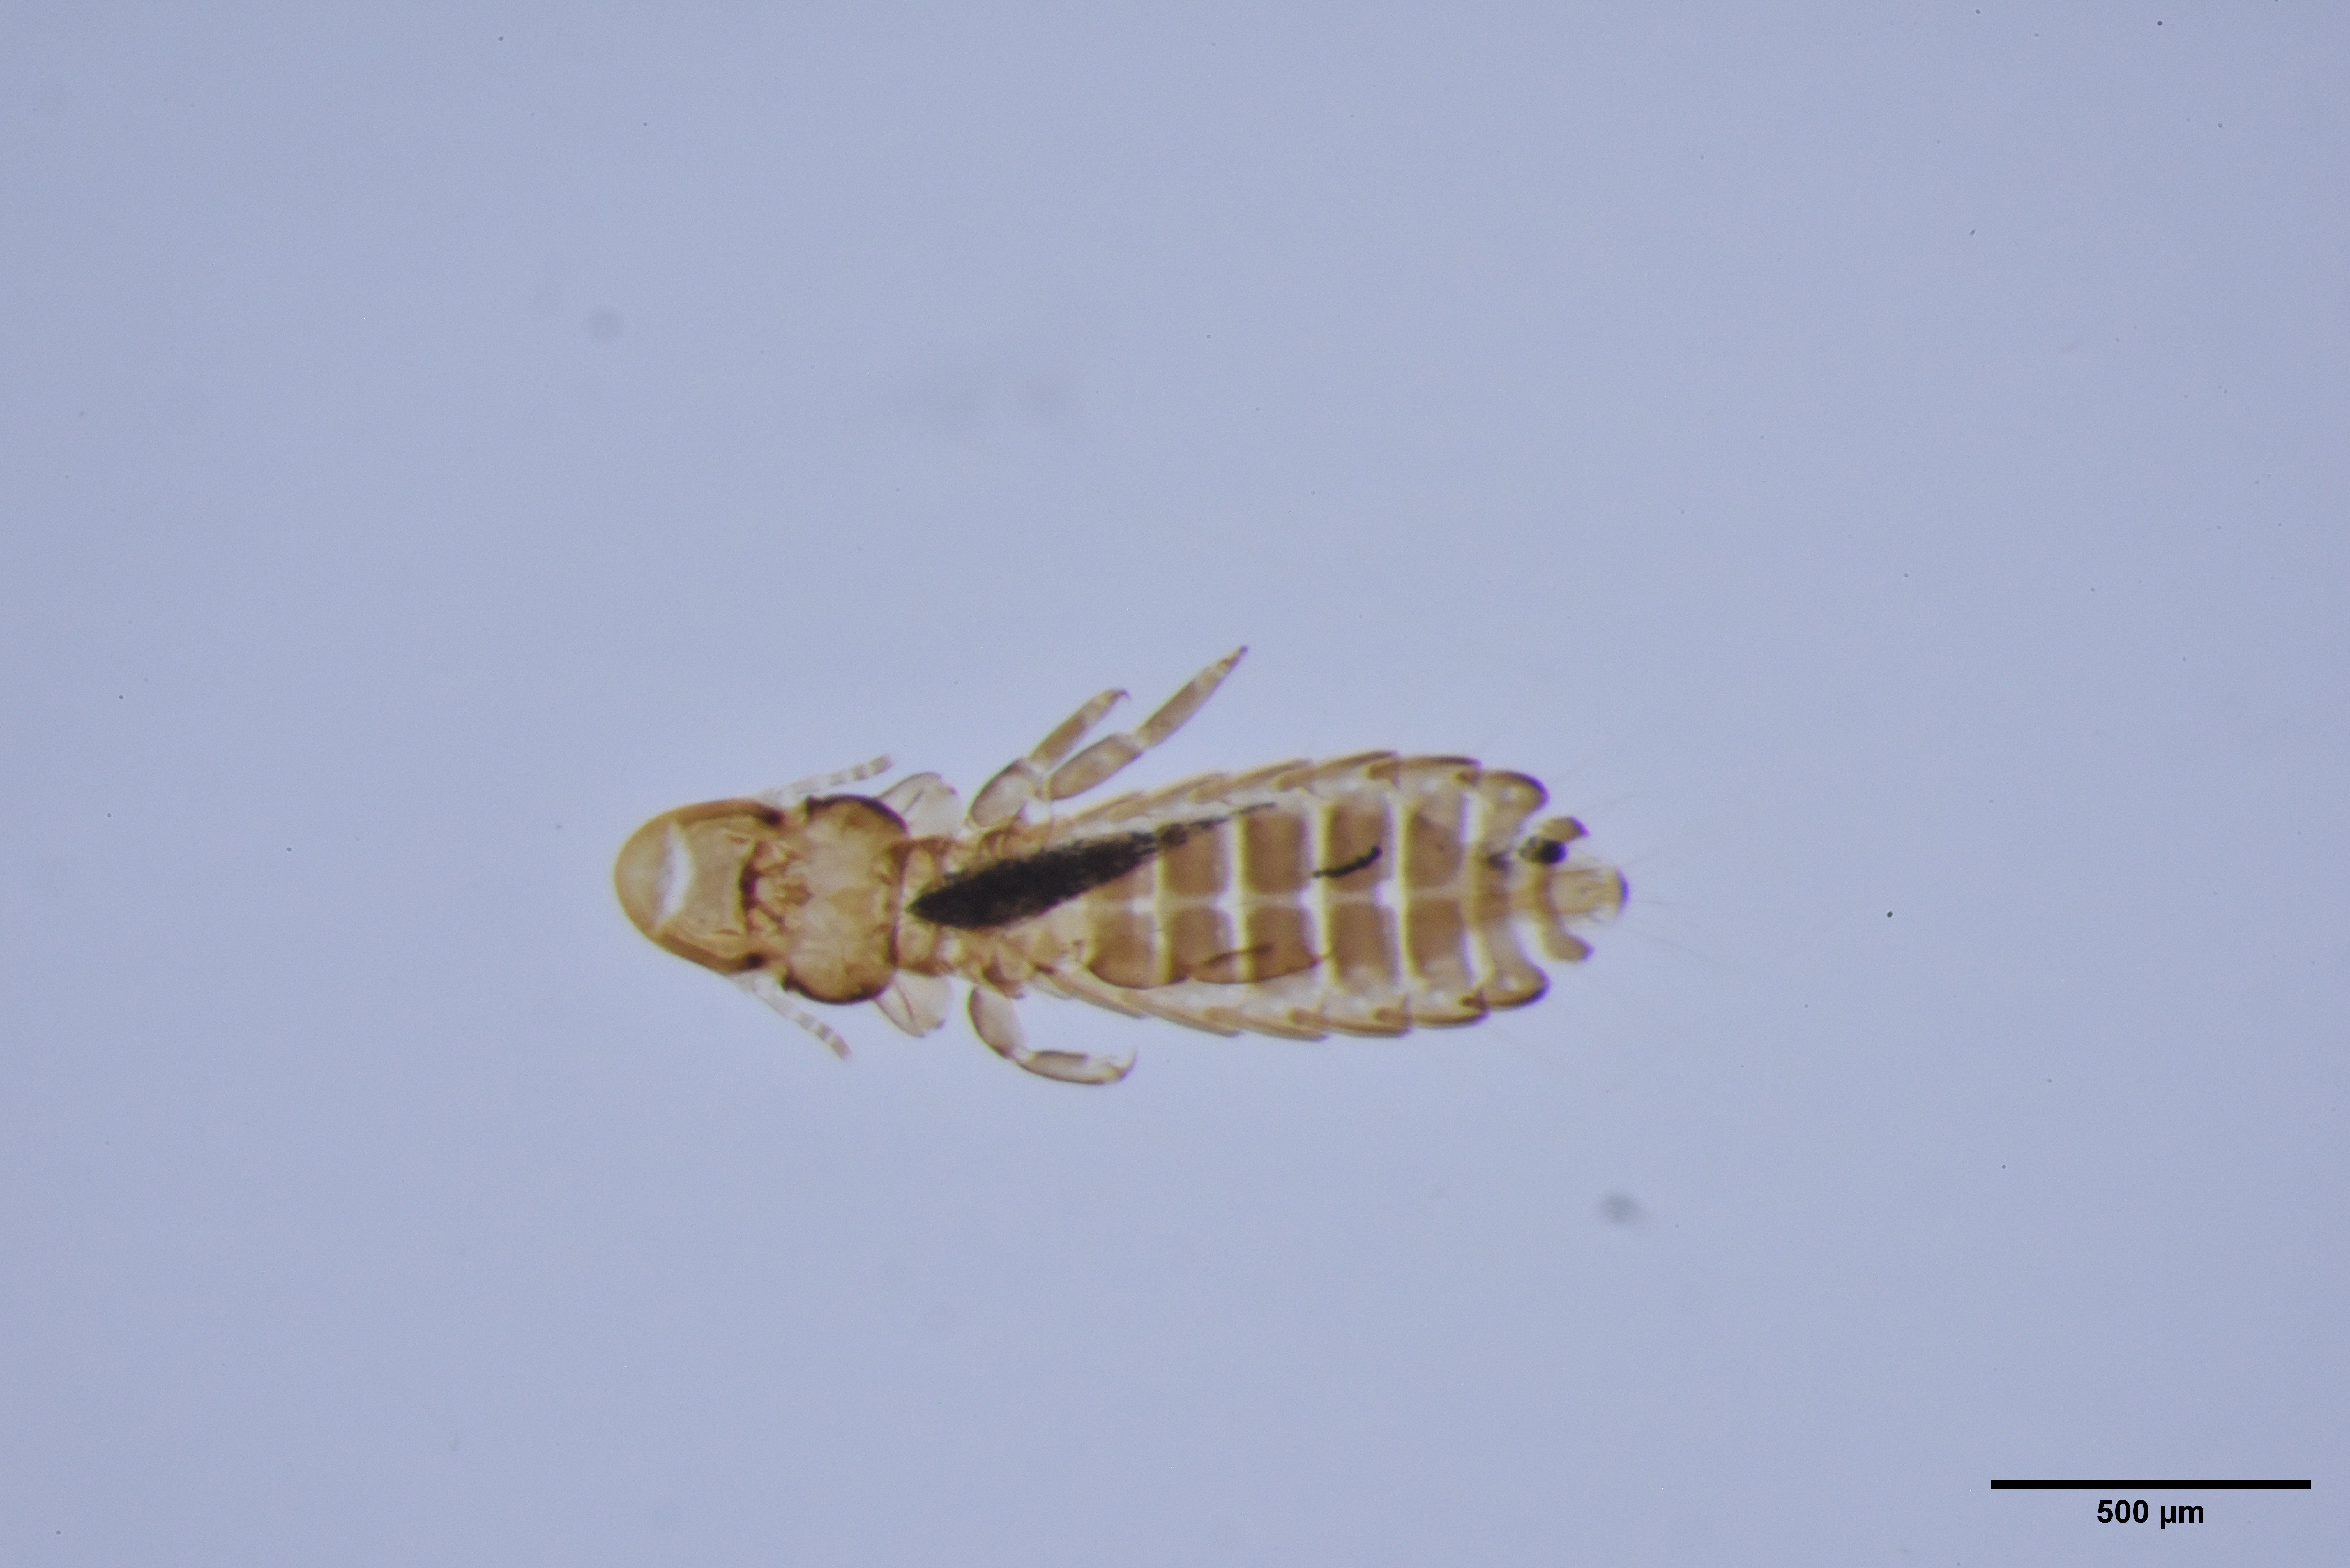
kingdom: Animalia
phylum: Arthropoda
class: Insecta
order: Psocodea
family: Philopteridae
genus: Cuculicola
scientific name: Cuculicola latirostris
